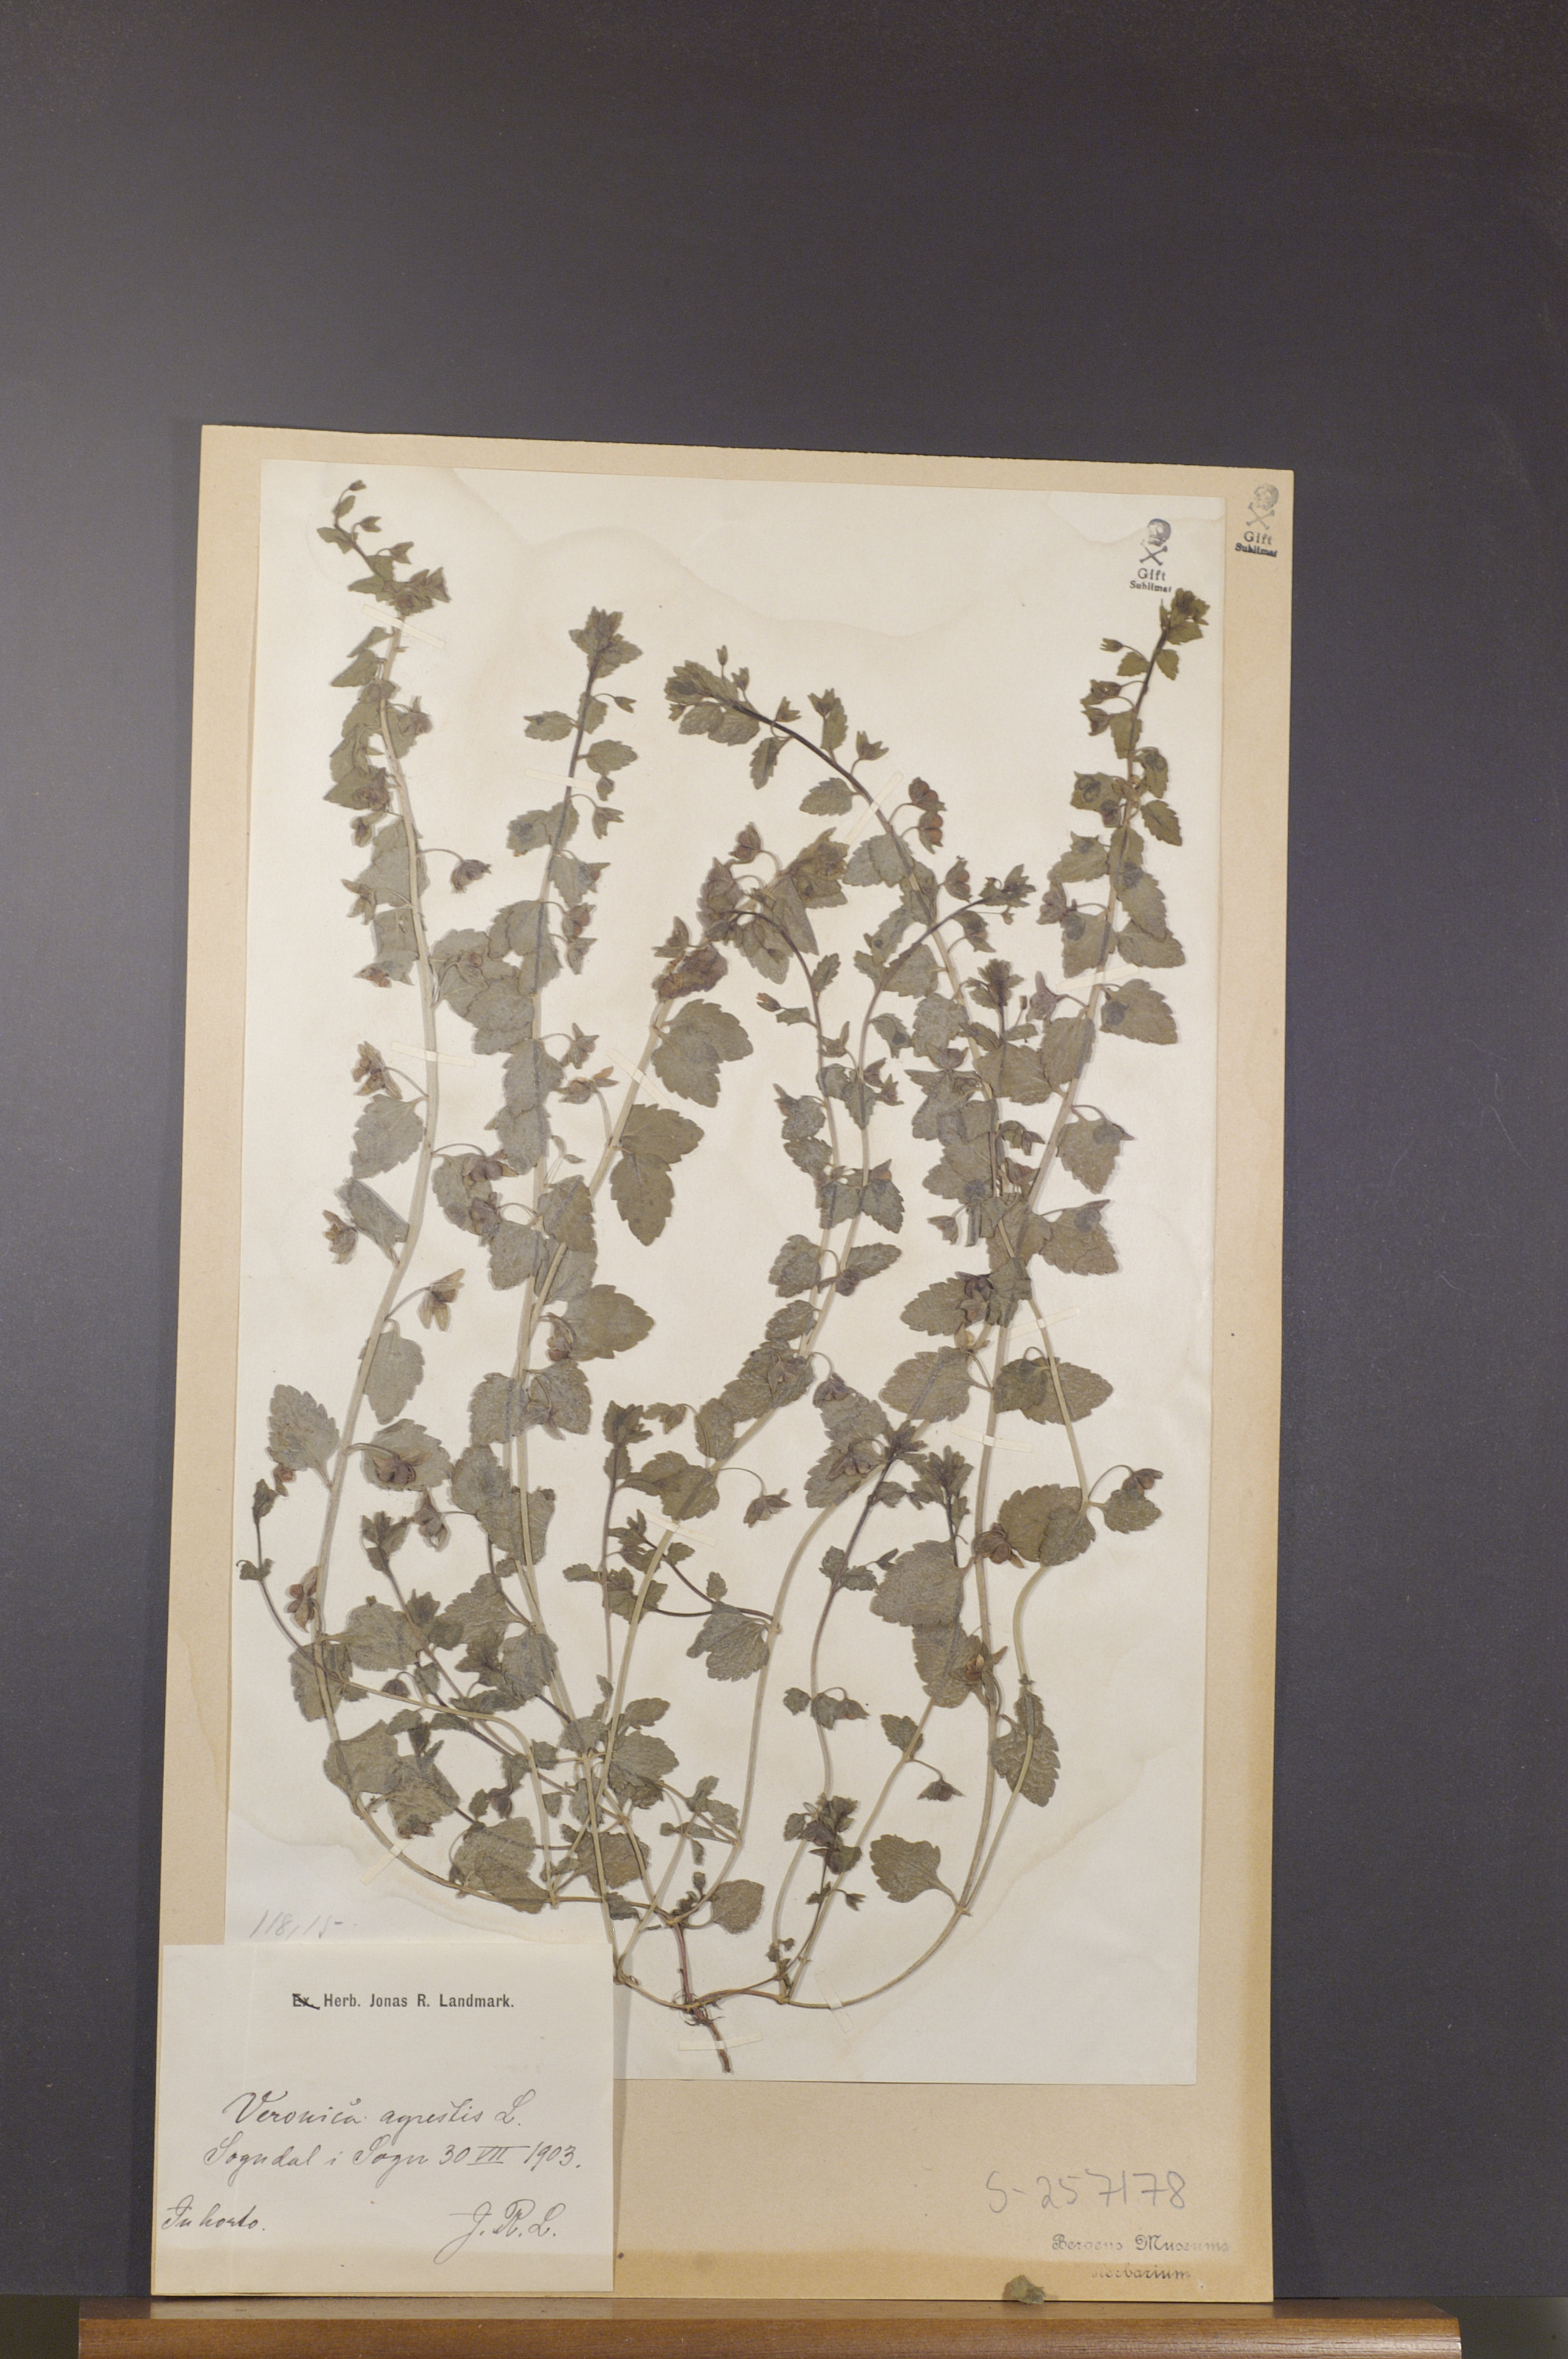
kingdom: Plantae
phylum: Tracheophyta
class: Magnoliopsida
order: Lamiales
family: Plantaginaceae
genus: Veronica
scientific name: Veronica agrestis
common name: Green field-speedwell
